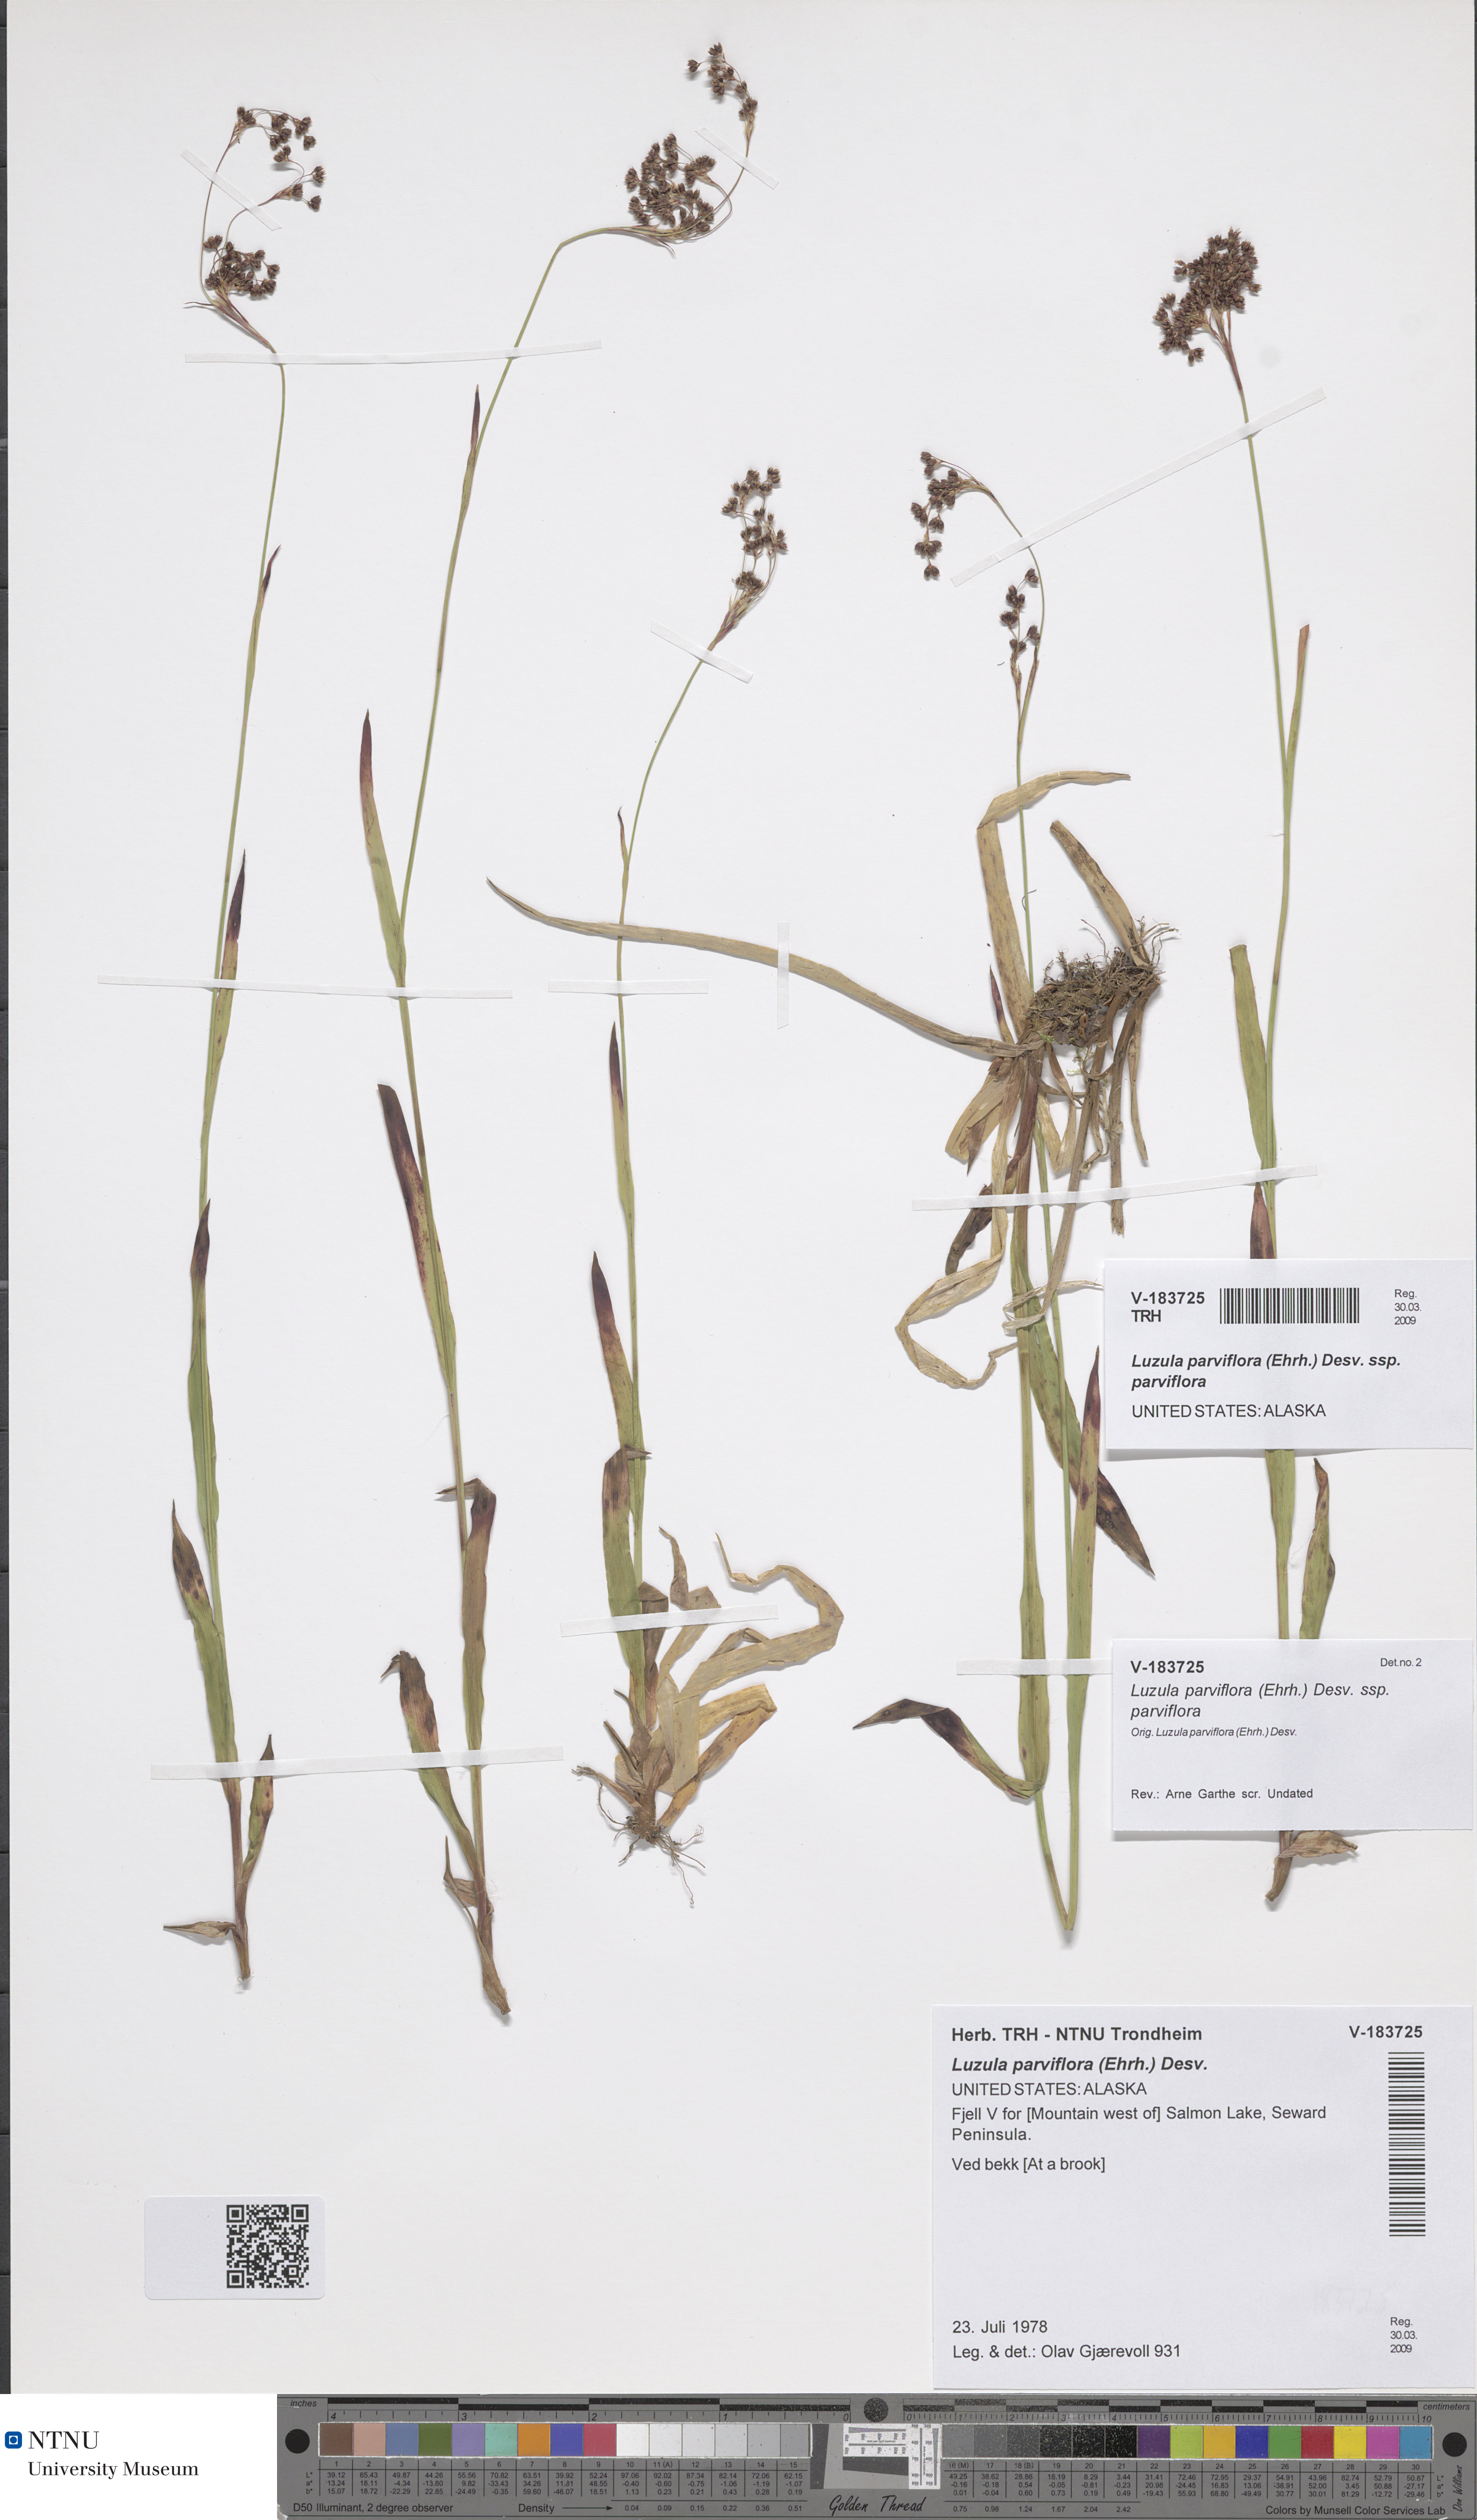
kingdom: Plantae
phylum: Tracheophyta
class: Liliopsida
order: Poales
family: Juncaceae
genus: Luzula
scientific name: Luzula parviflora
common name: Millet woodrush
